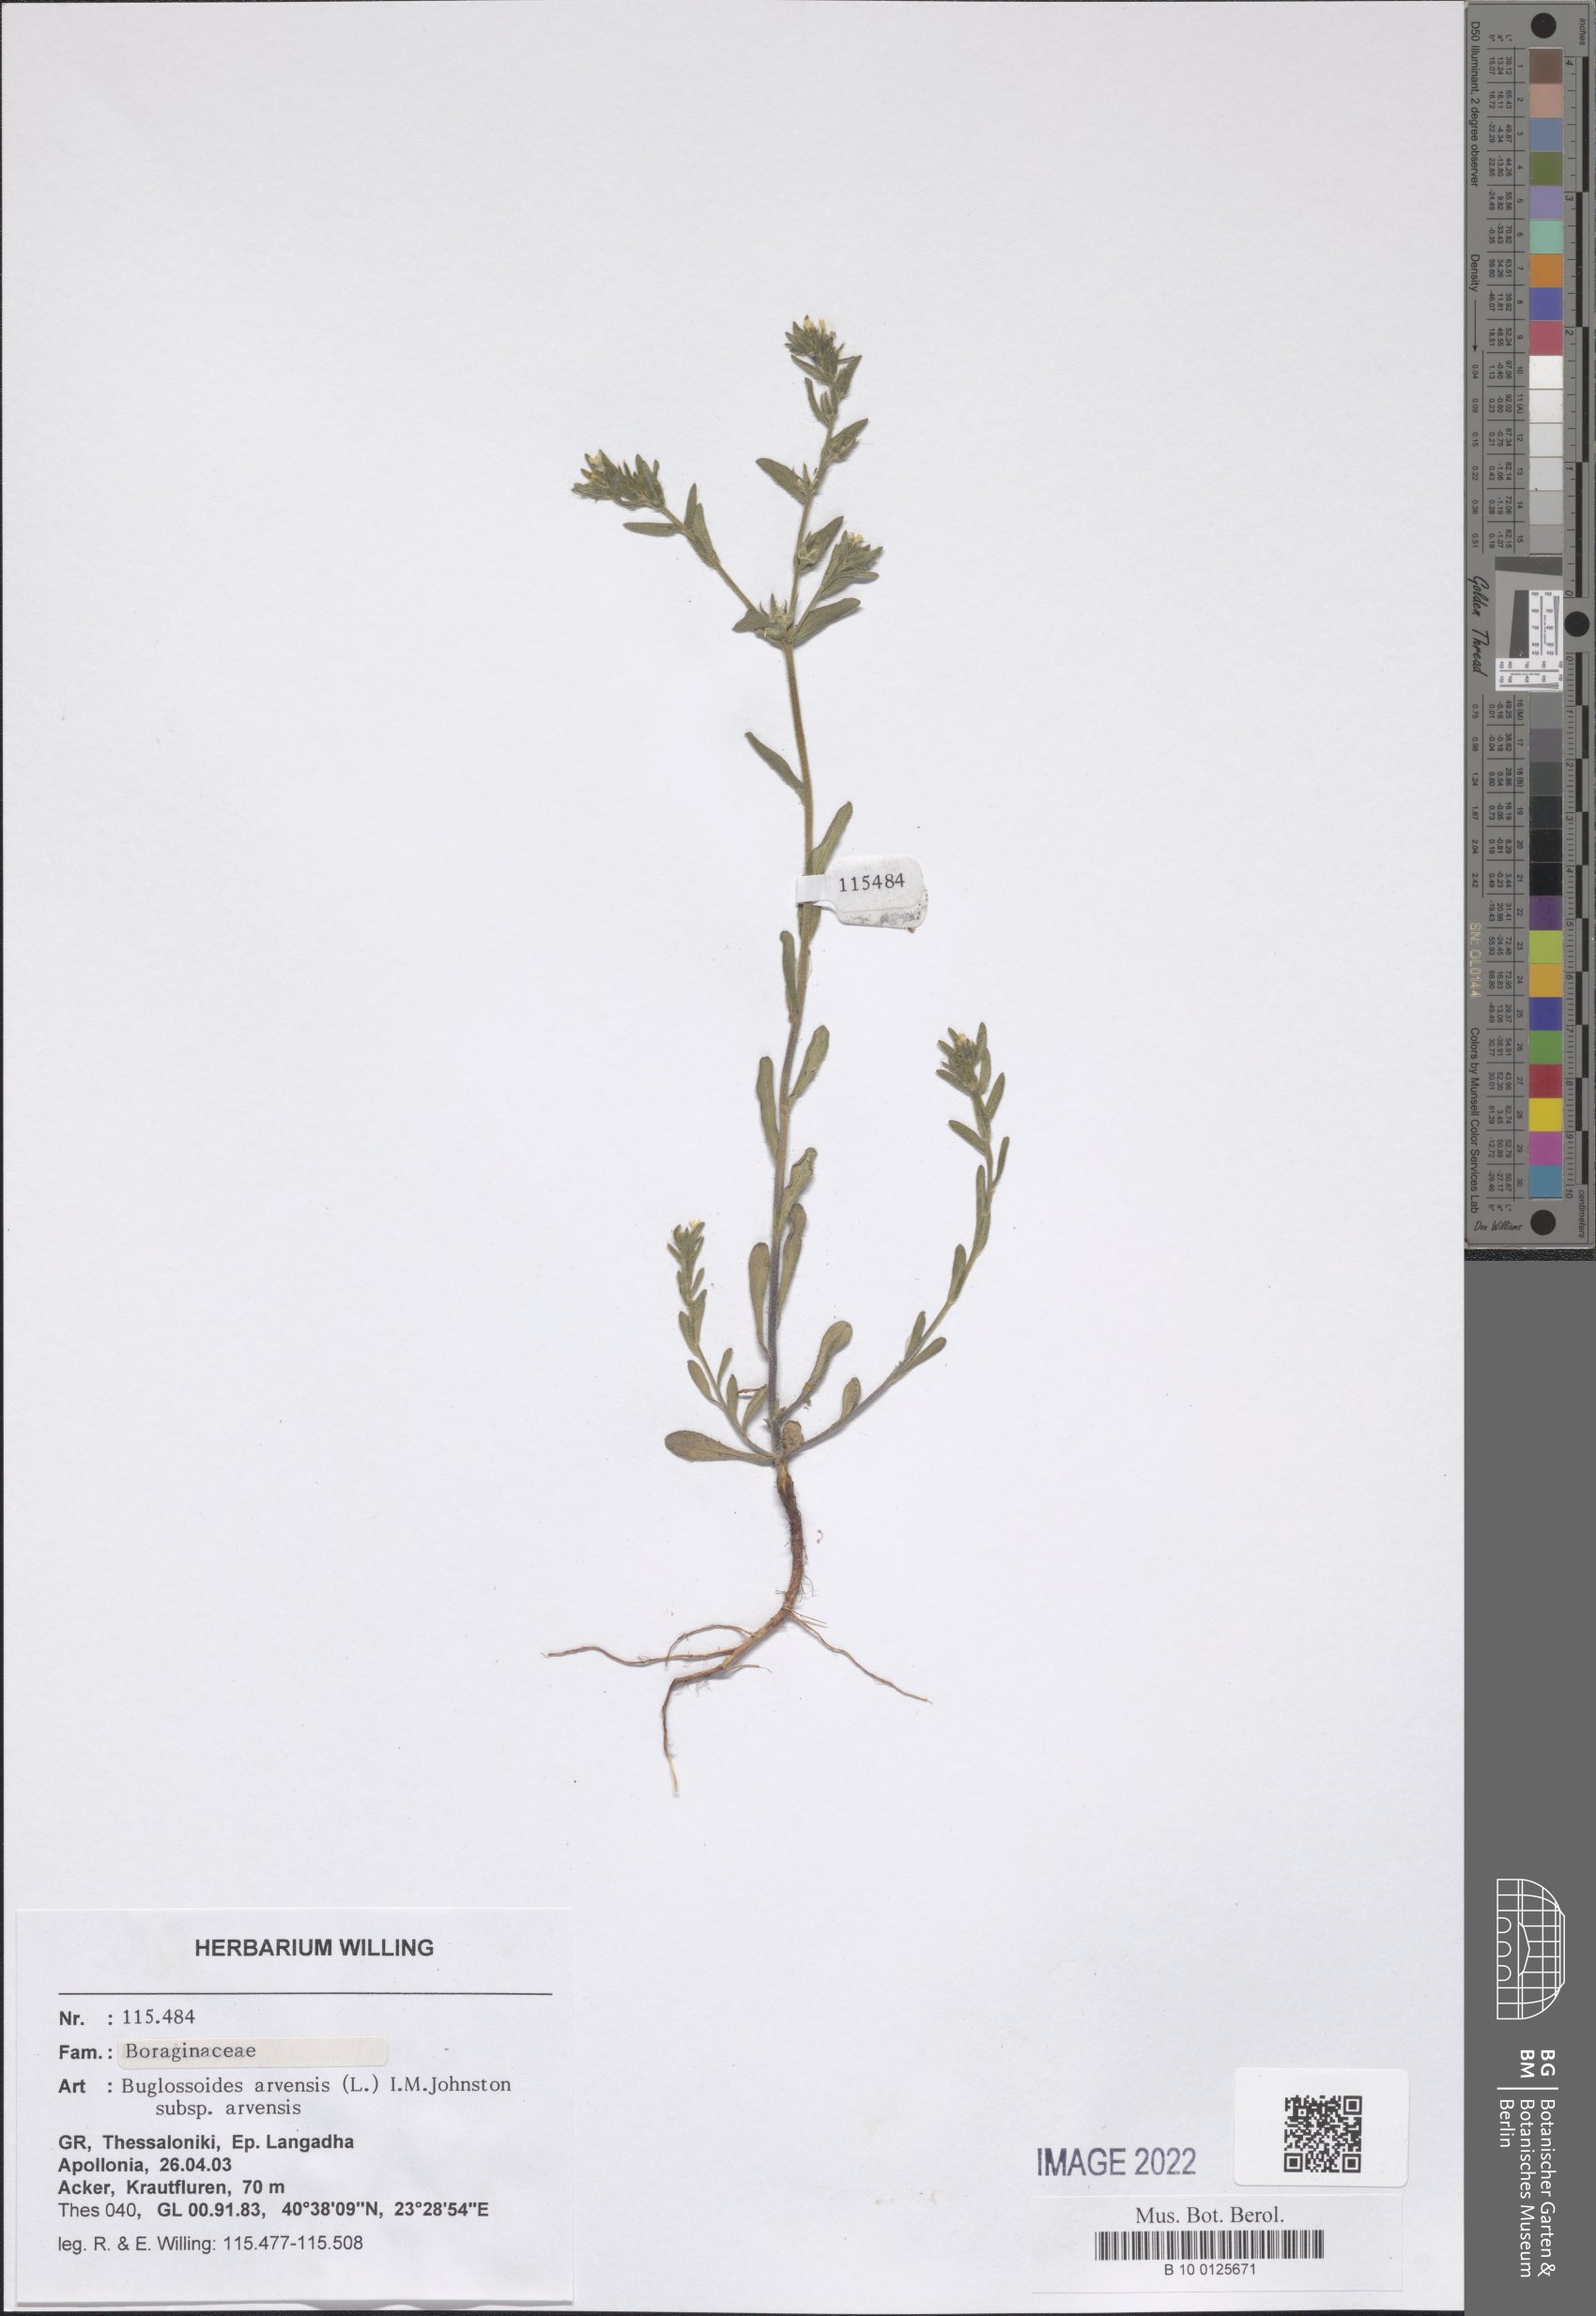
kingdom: Plantae
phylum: Tracheophyta
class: Magnoliopsida
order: Boraginales
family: Boraginaceae
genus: Buglossoides
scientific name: Buglossoides arvensis
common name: Corn gromwell
